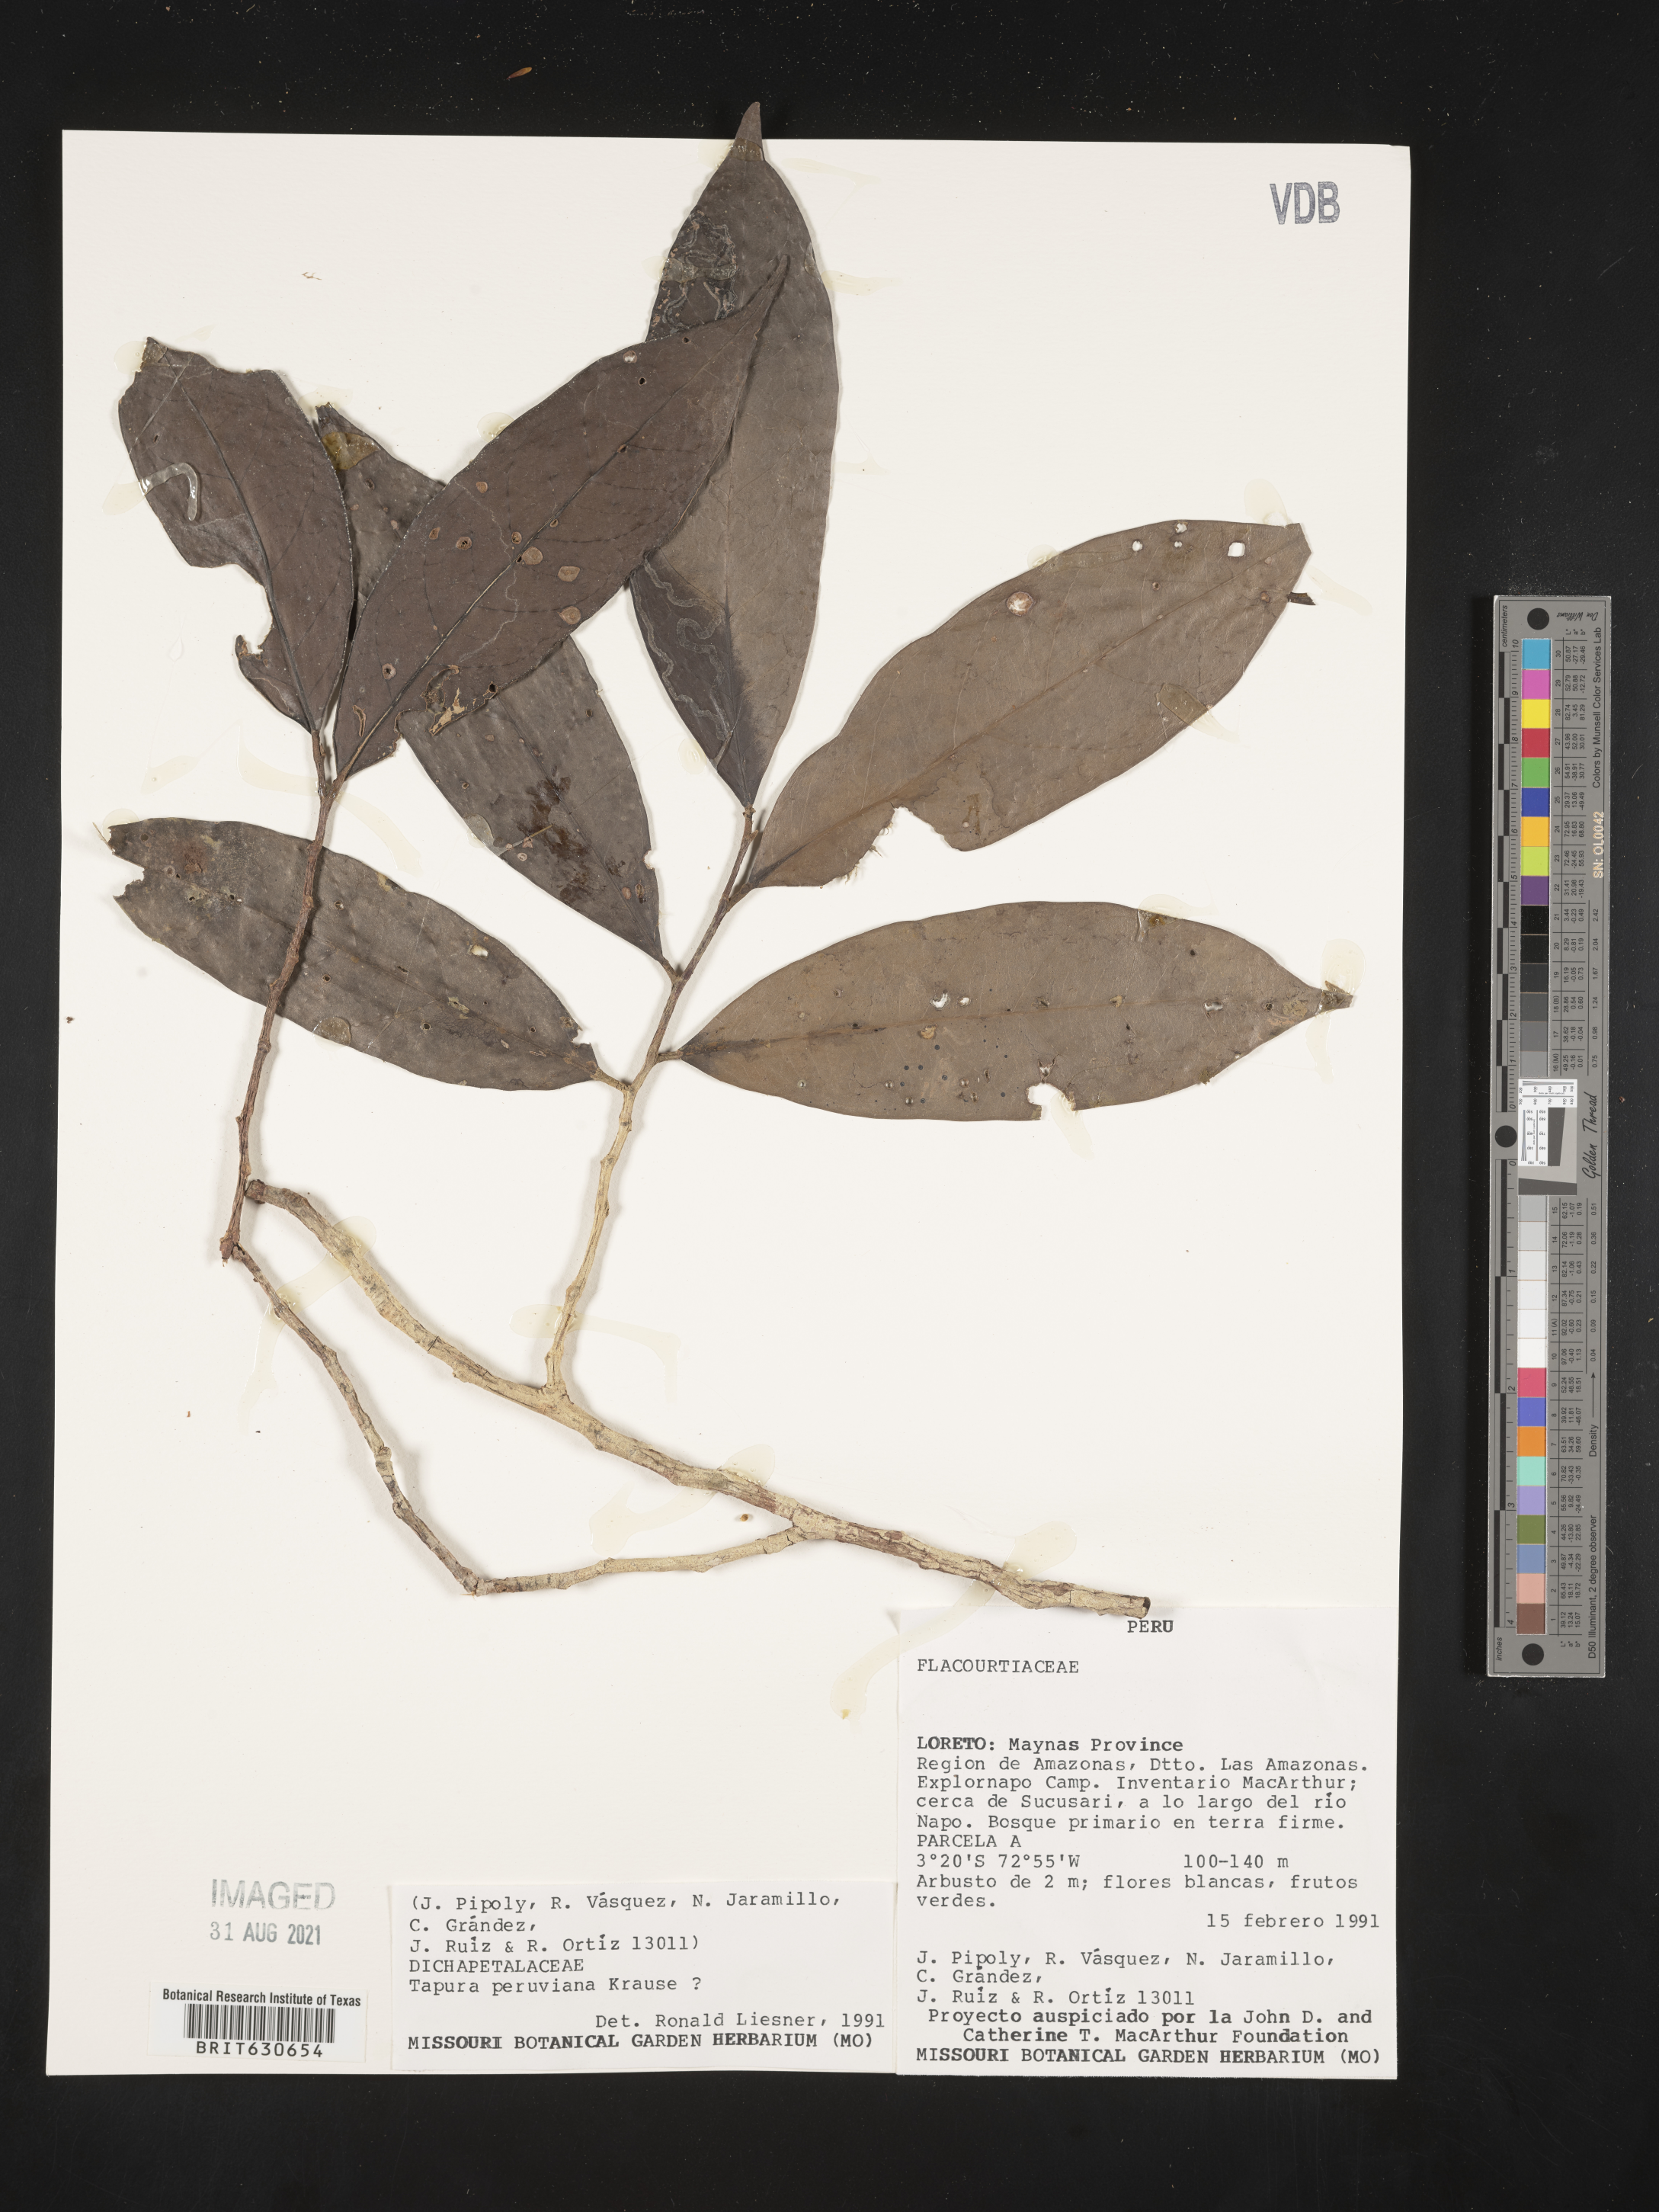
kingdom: Plantae
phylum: Tracheophyta
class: Magnoliopsida
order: Malpighiales
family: Dichapetalaceae
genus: Tapura
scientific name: Tapura
